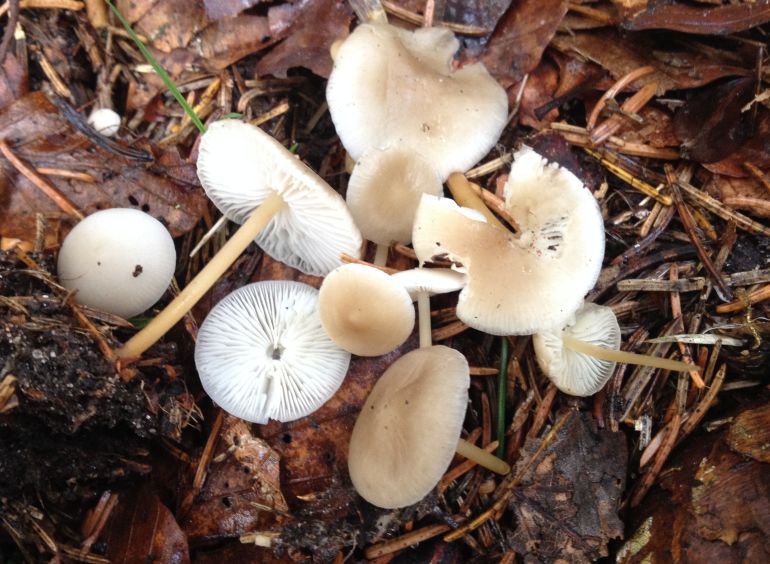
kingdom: Fungi
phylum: Basidiomycota
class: Agaricomycetes
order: Agaricales
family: Physalacriaceae
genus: Strobilurus
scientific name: Strobilurus esculentus
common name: gran-koglehat
